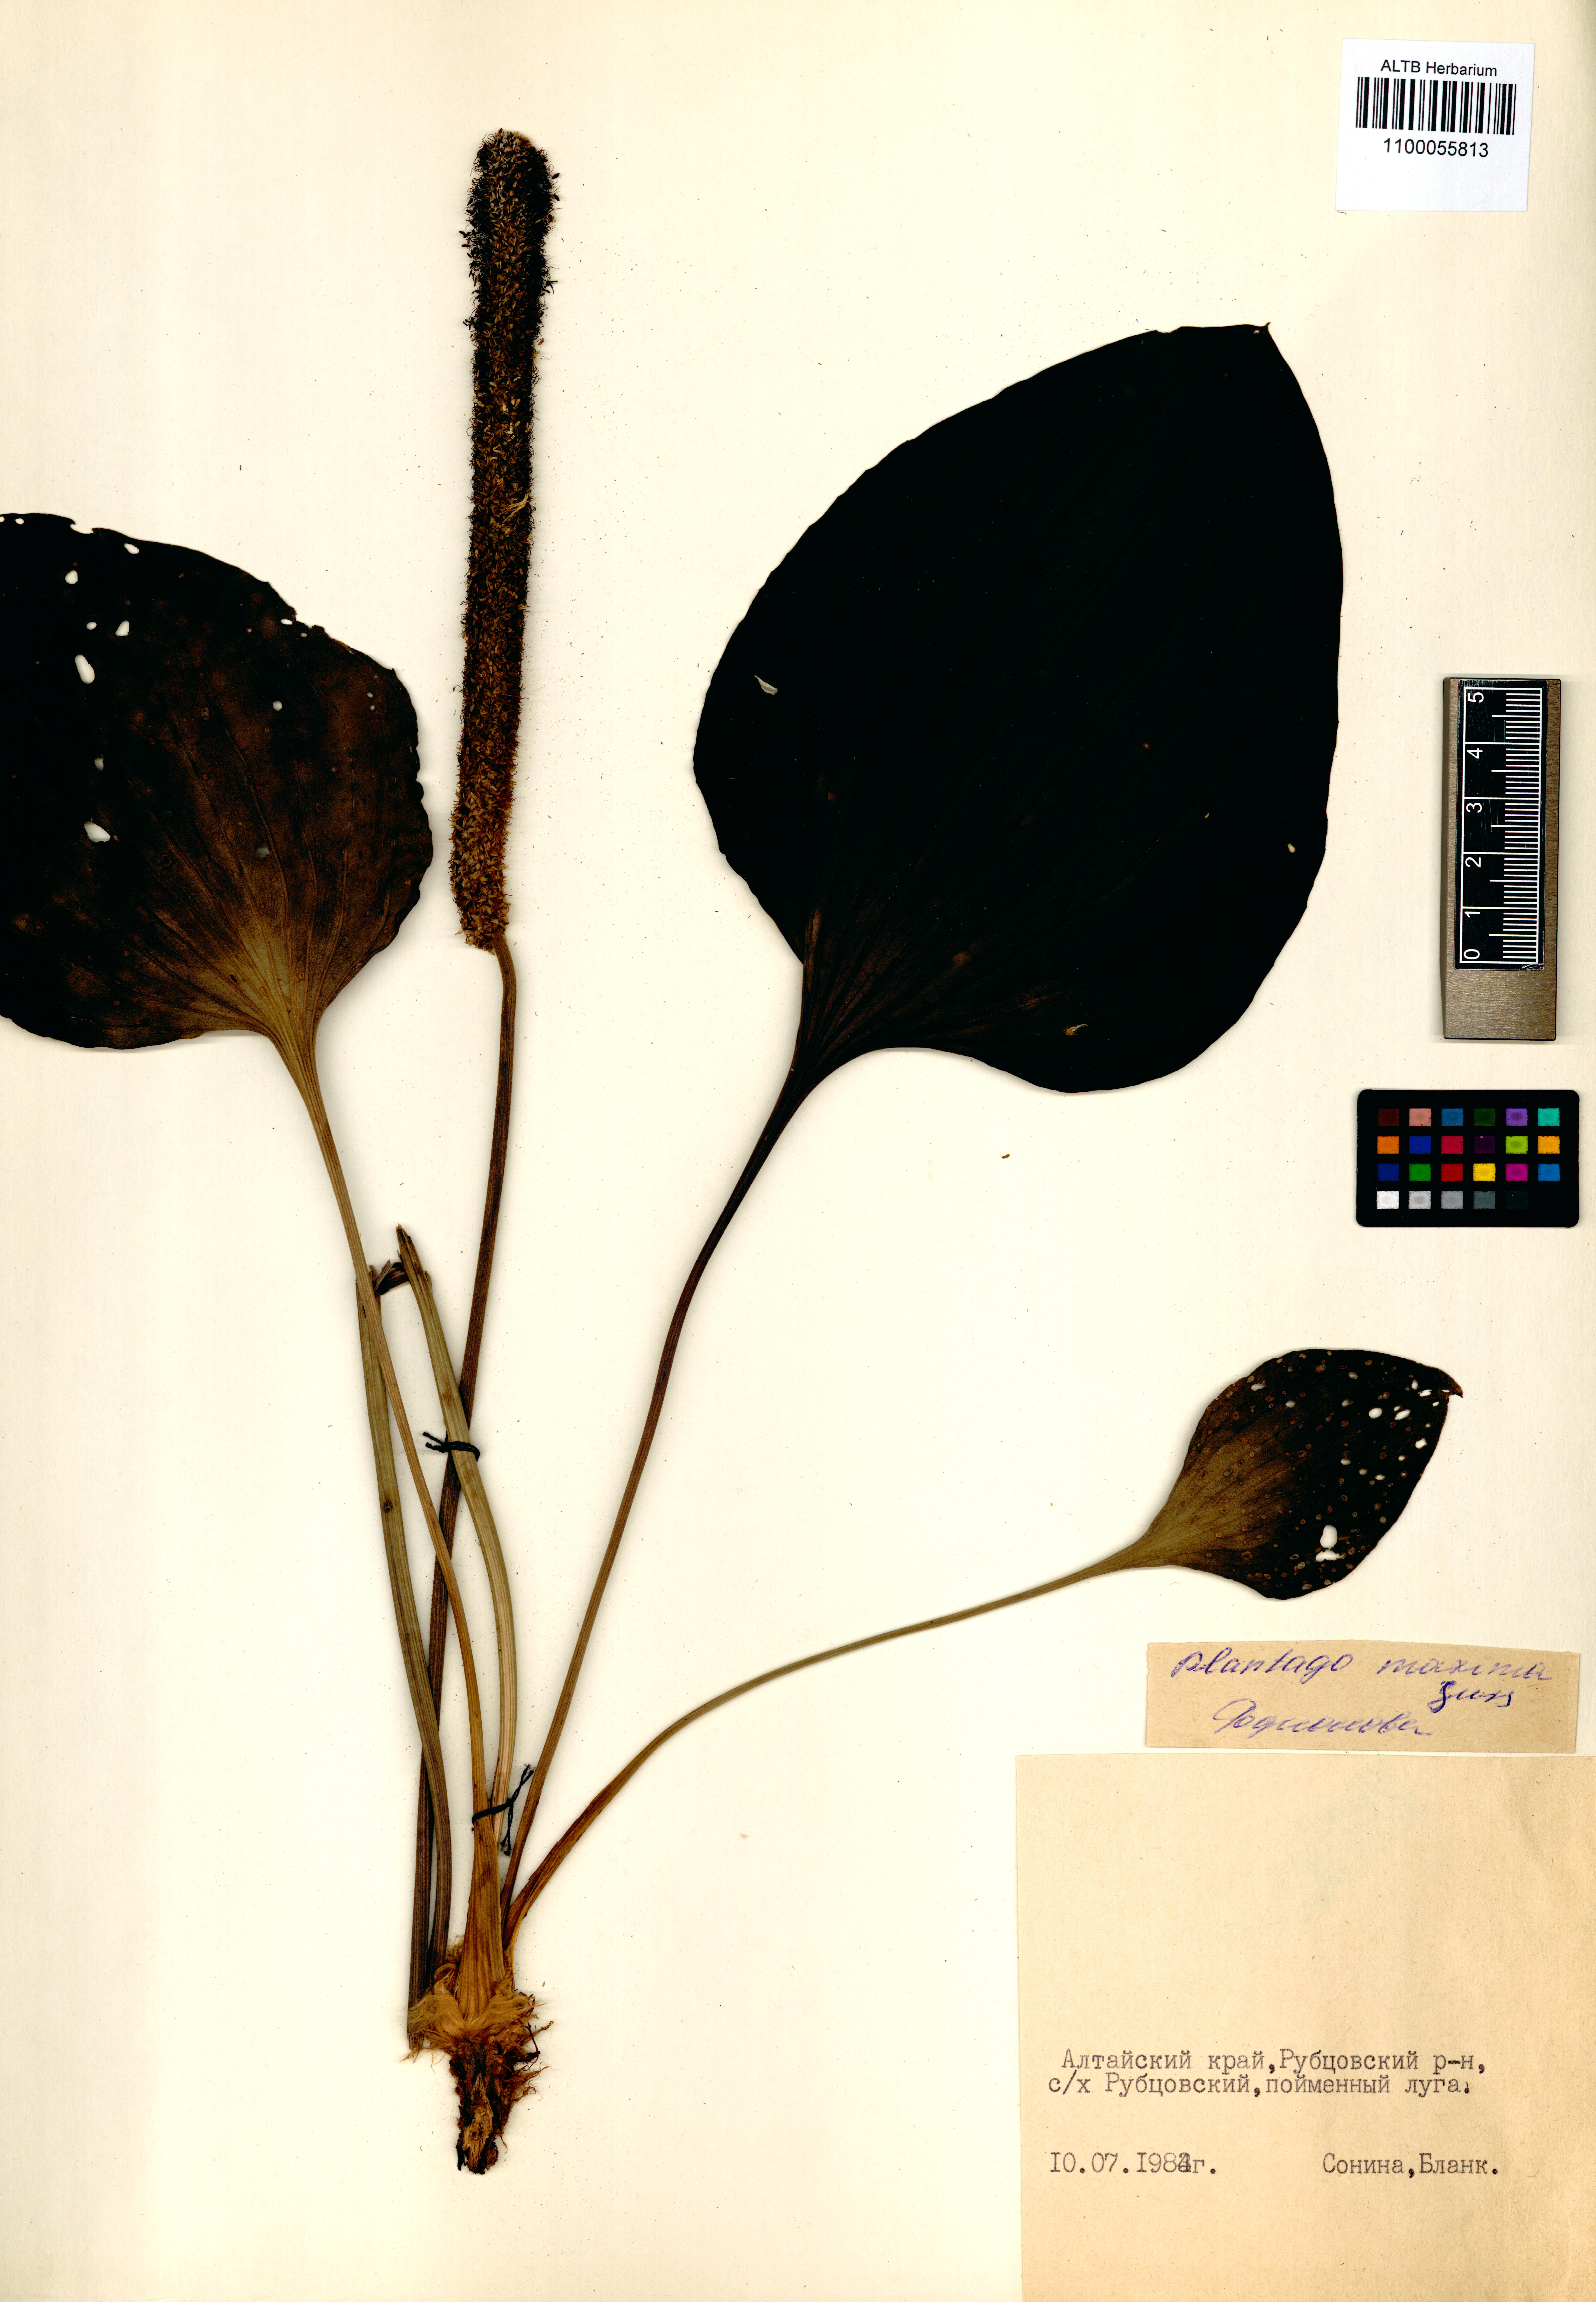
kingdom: Plantae
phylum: Tracheophyta
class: Magnoliopsida
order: Lamiales
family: Plantaginaceae
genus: Plantago
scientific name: Plantago maxima
